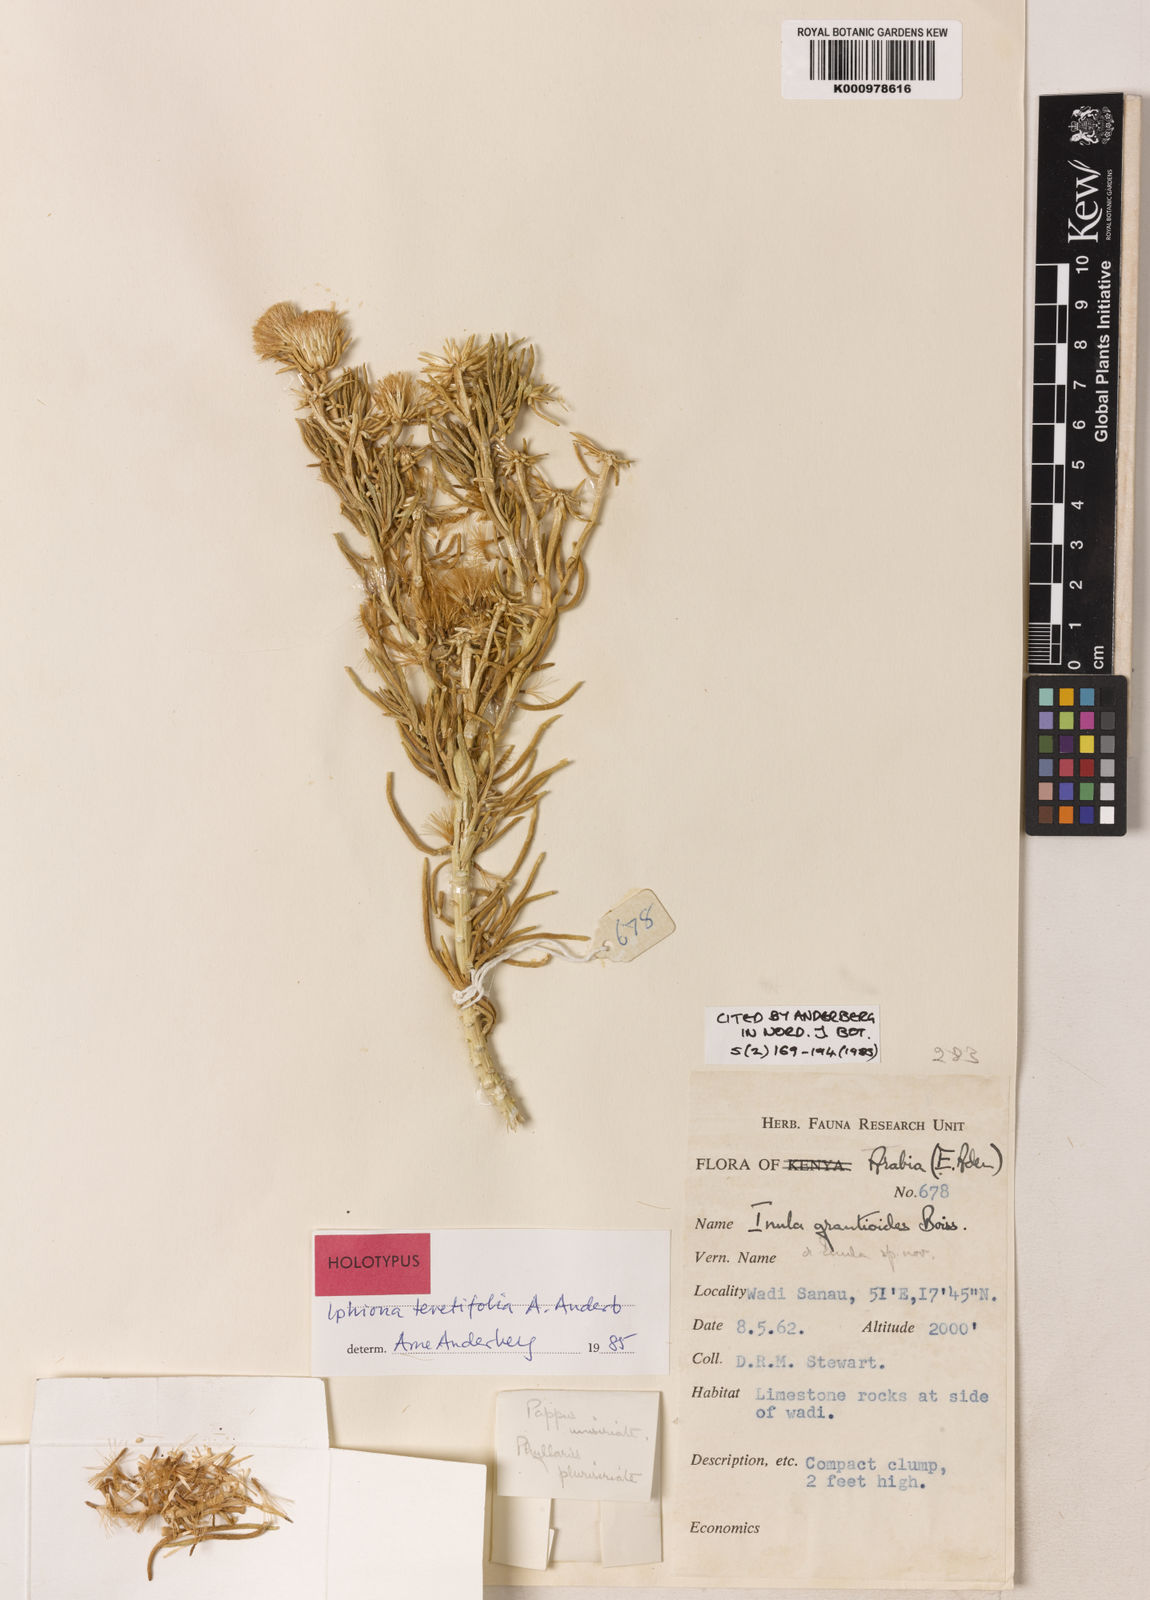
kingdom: Plantae
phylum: Tracheophyta
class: Magnoliopsida
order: Asterales
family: Asteraceae
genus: Iphiona
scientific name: Iphiona teretifolia
